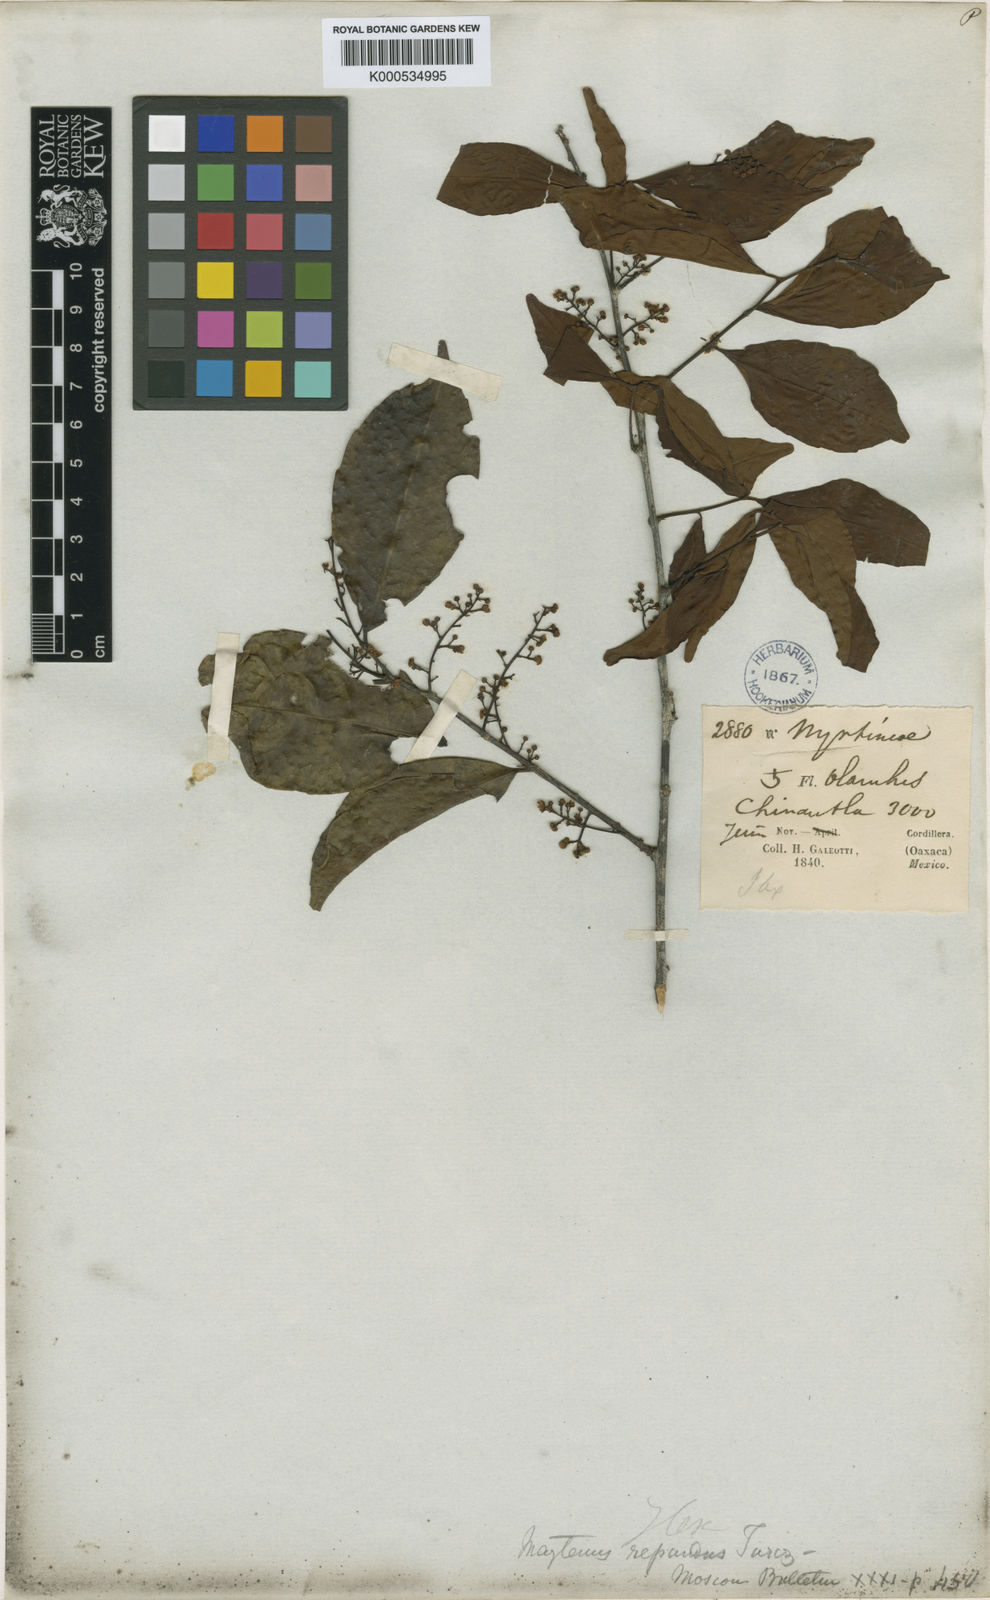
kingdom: Plantae
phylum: Tracheophyta
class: Magnoliopsida
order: Celastrales
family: Celastraceae
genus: Maytenus
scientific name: Maytenus repanda
